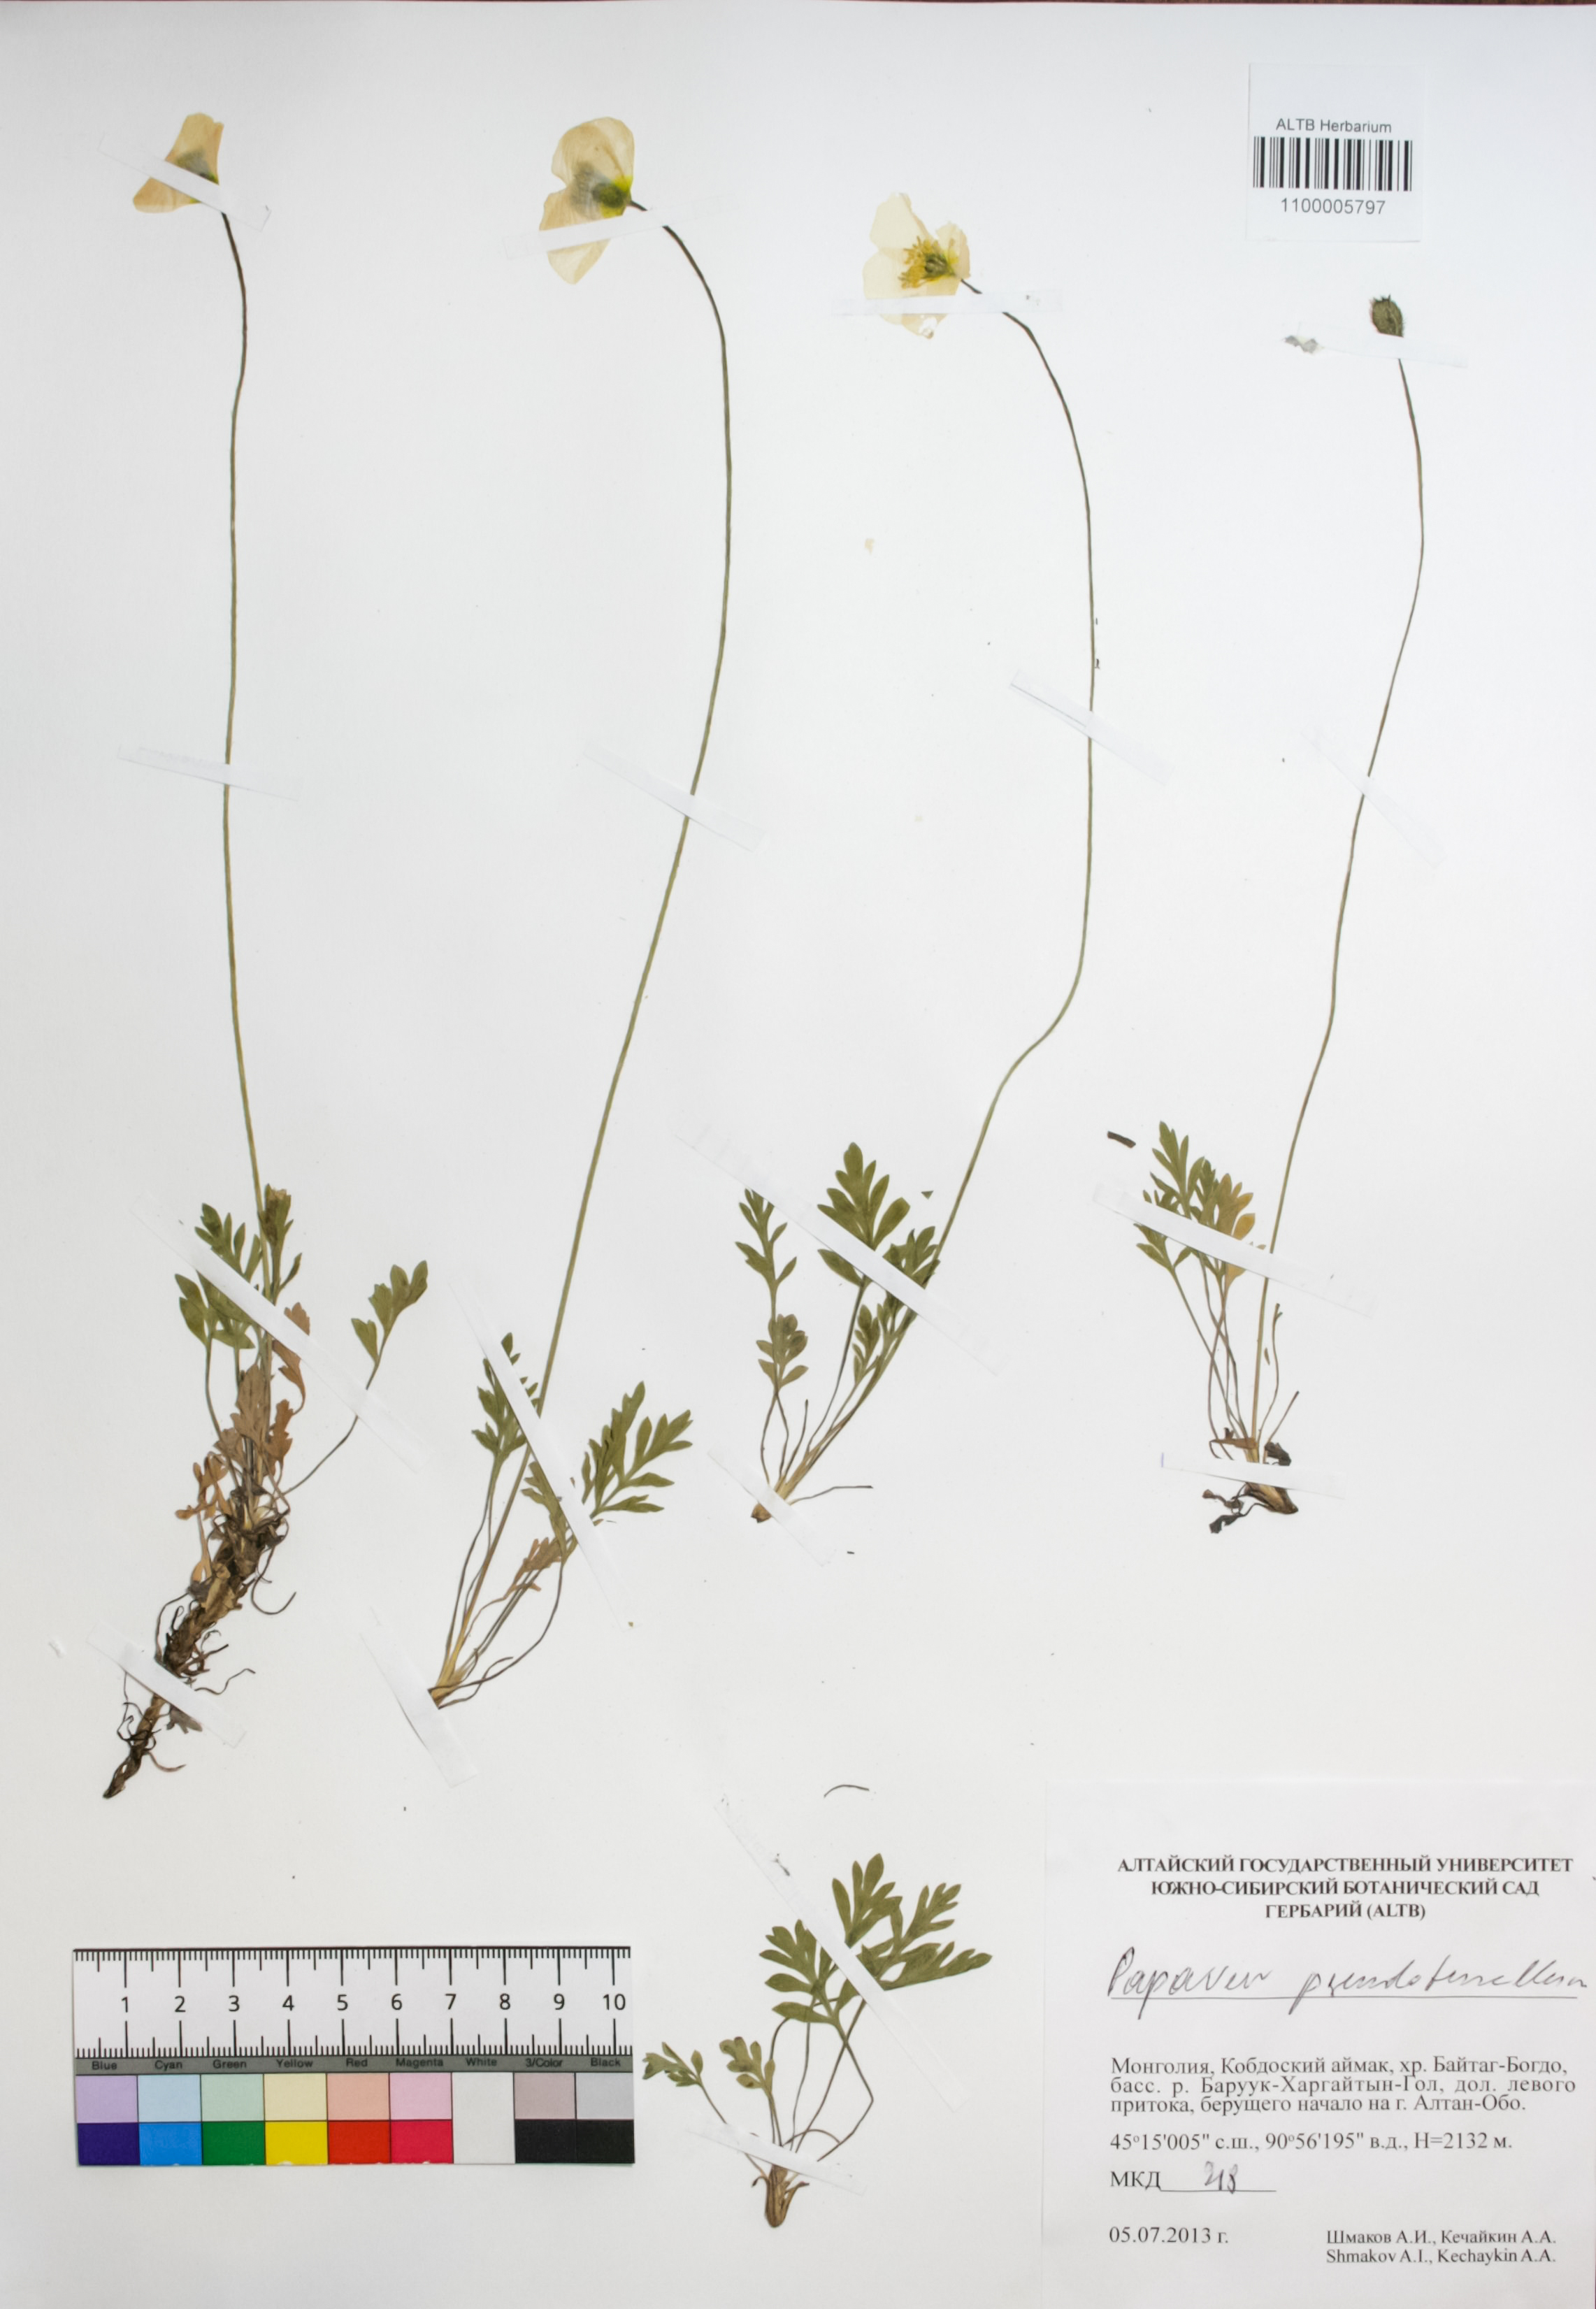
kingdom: Plantae
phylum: Tracheophyta
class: Magnoliopsida
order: Ranunculales
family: Papaveraceae
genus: Papaver
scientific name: Papaver croceum
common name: Siberian poppy
